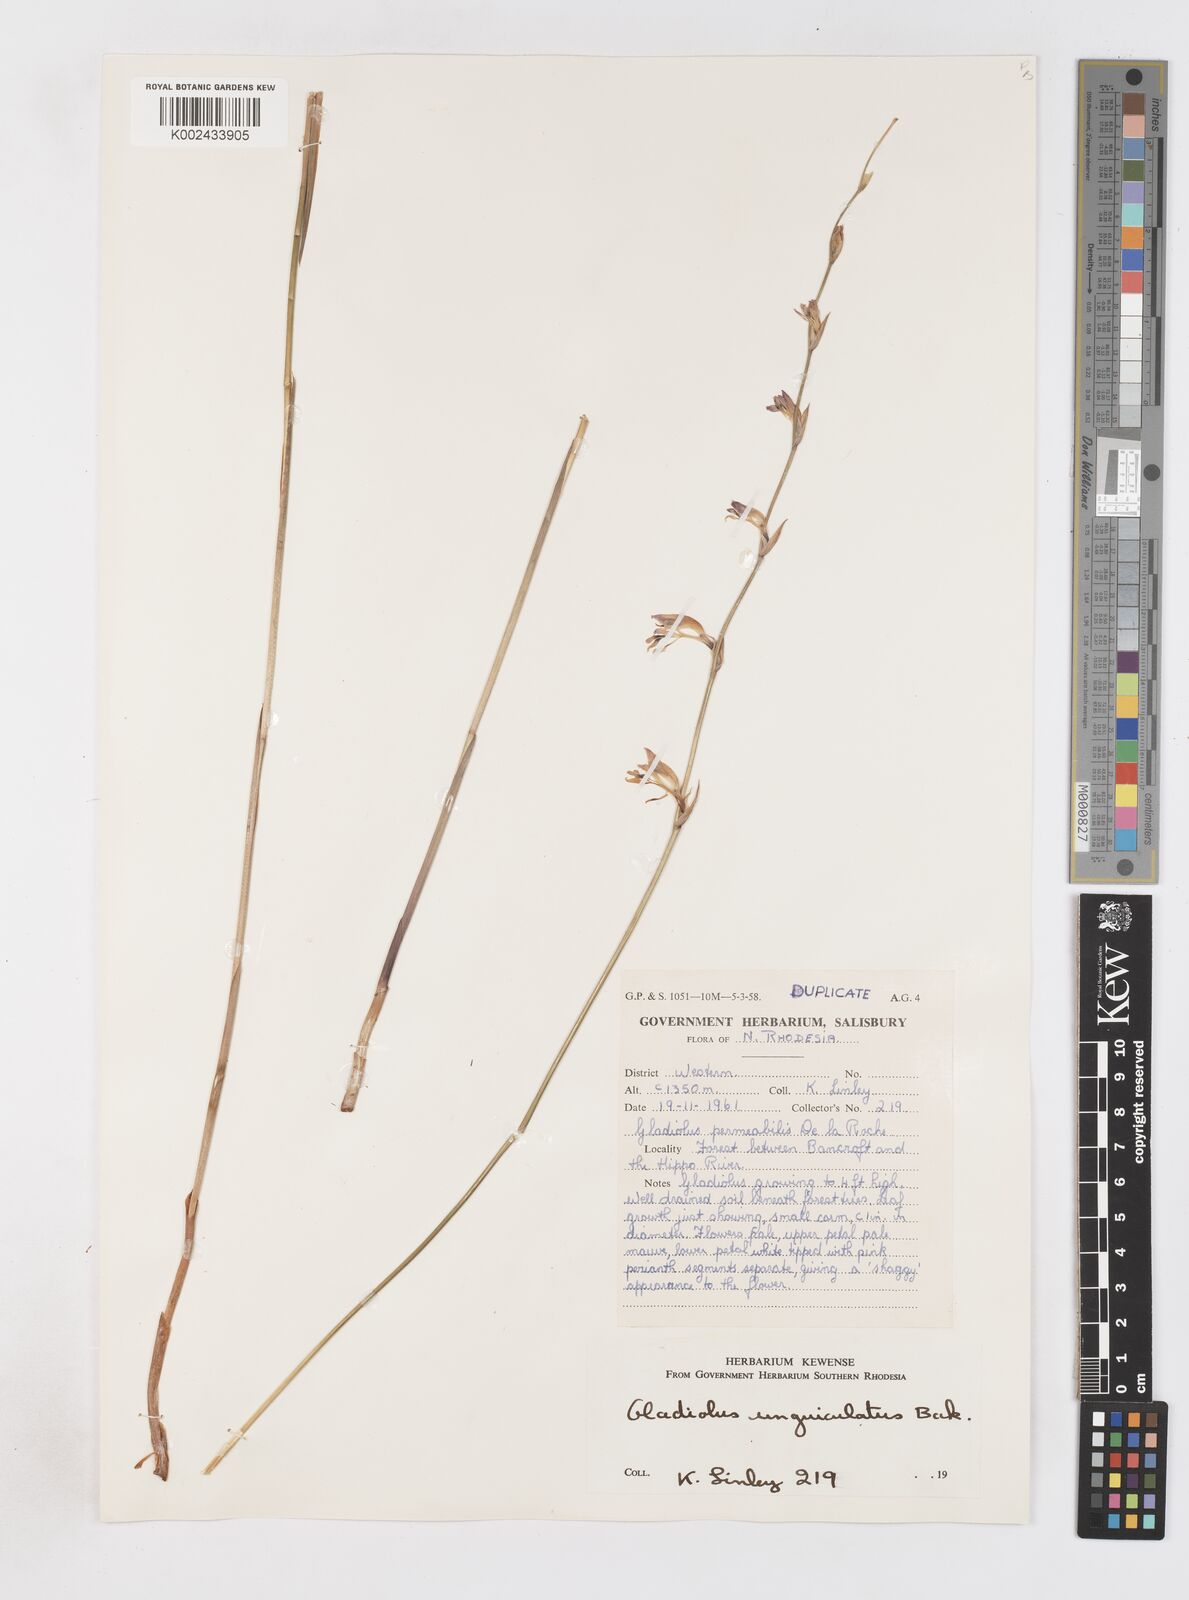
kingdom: Plantae
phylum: Tracheophyta
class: Liliopsida
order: Asparagales
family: Iridaceae
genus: Gladiolus
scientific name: Gladiolus unguiculatus
